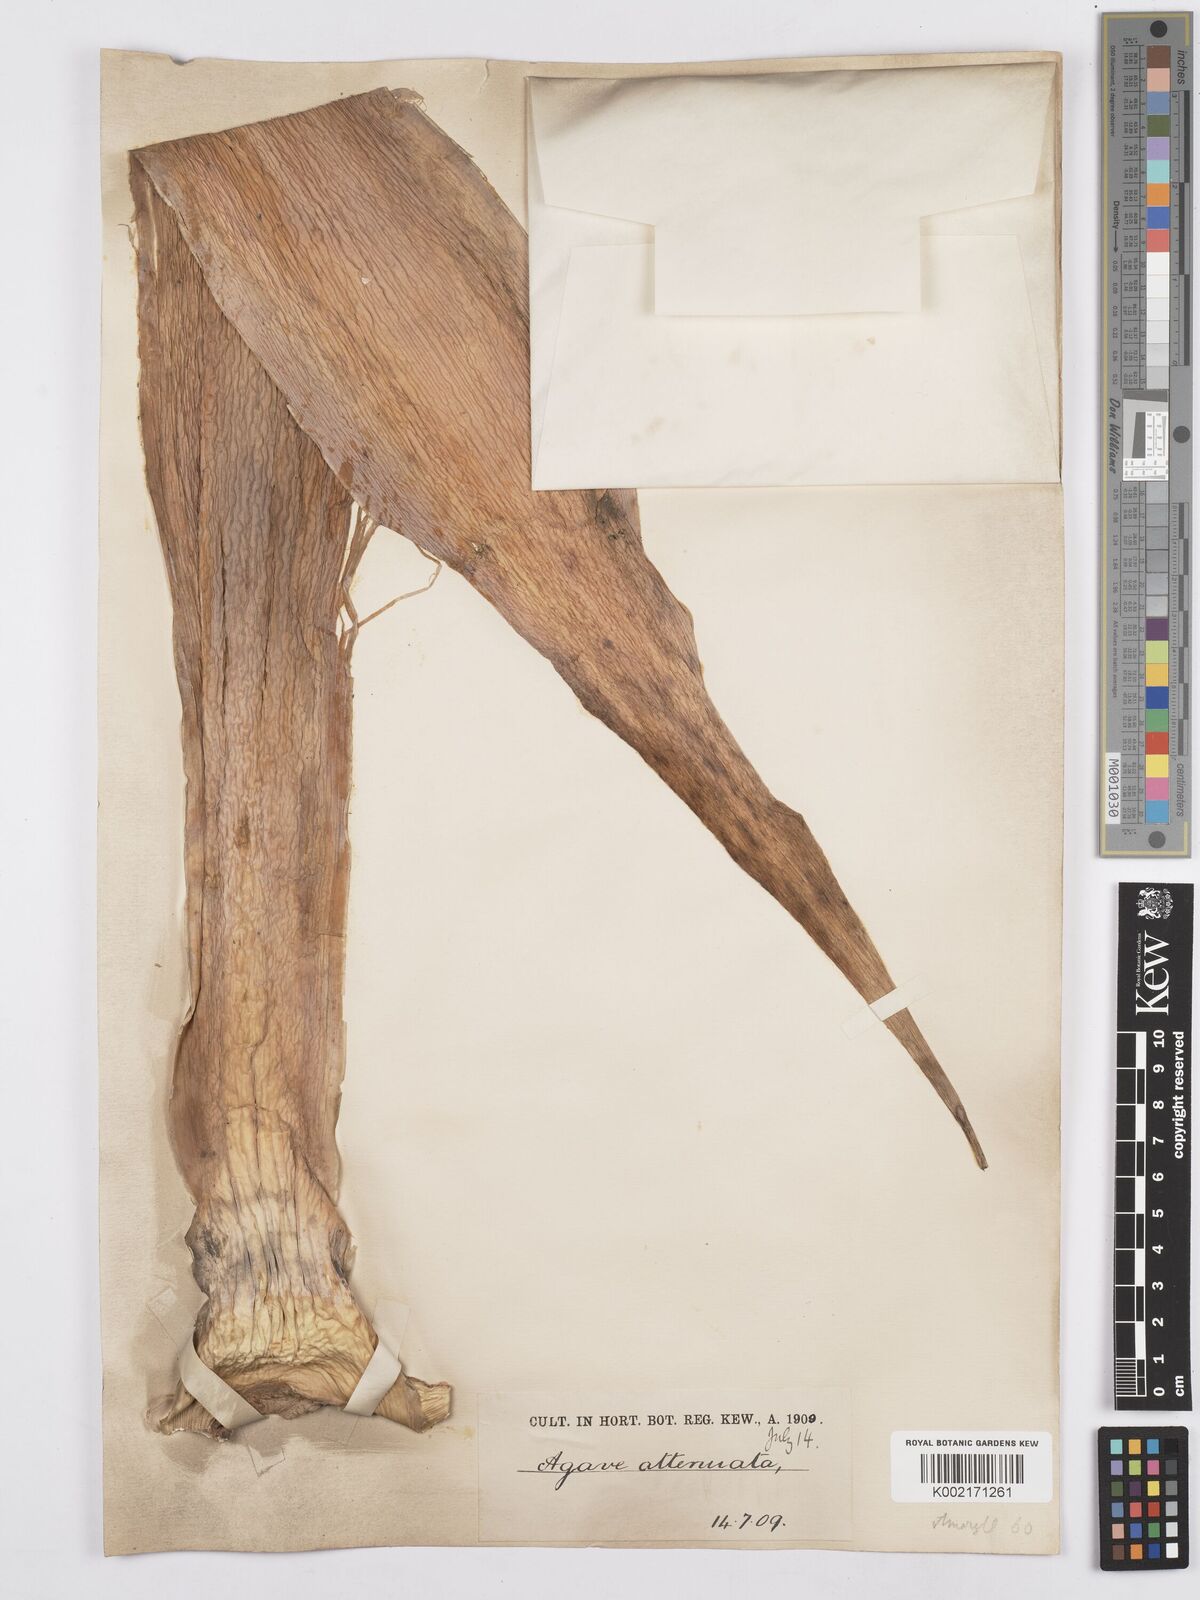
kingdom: Plantae
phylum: Tracheophyta
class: Liliopsida
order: Asparagales
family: Asparagaceae
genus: Agave
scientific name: Agave attenuata
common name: Fox tail agave
